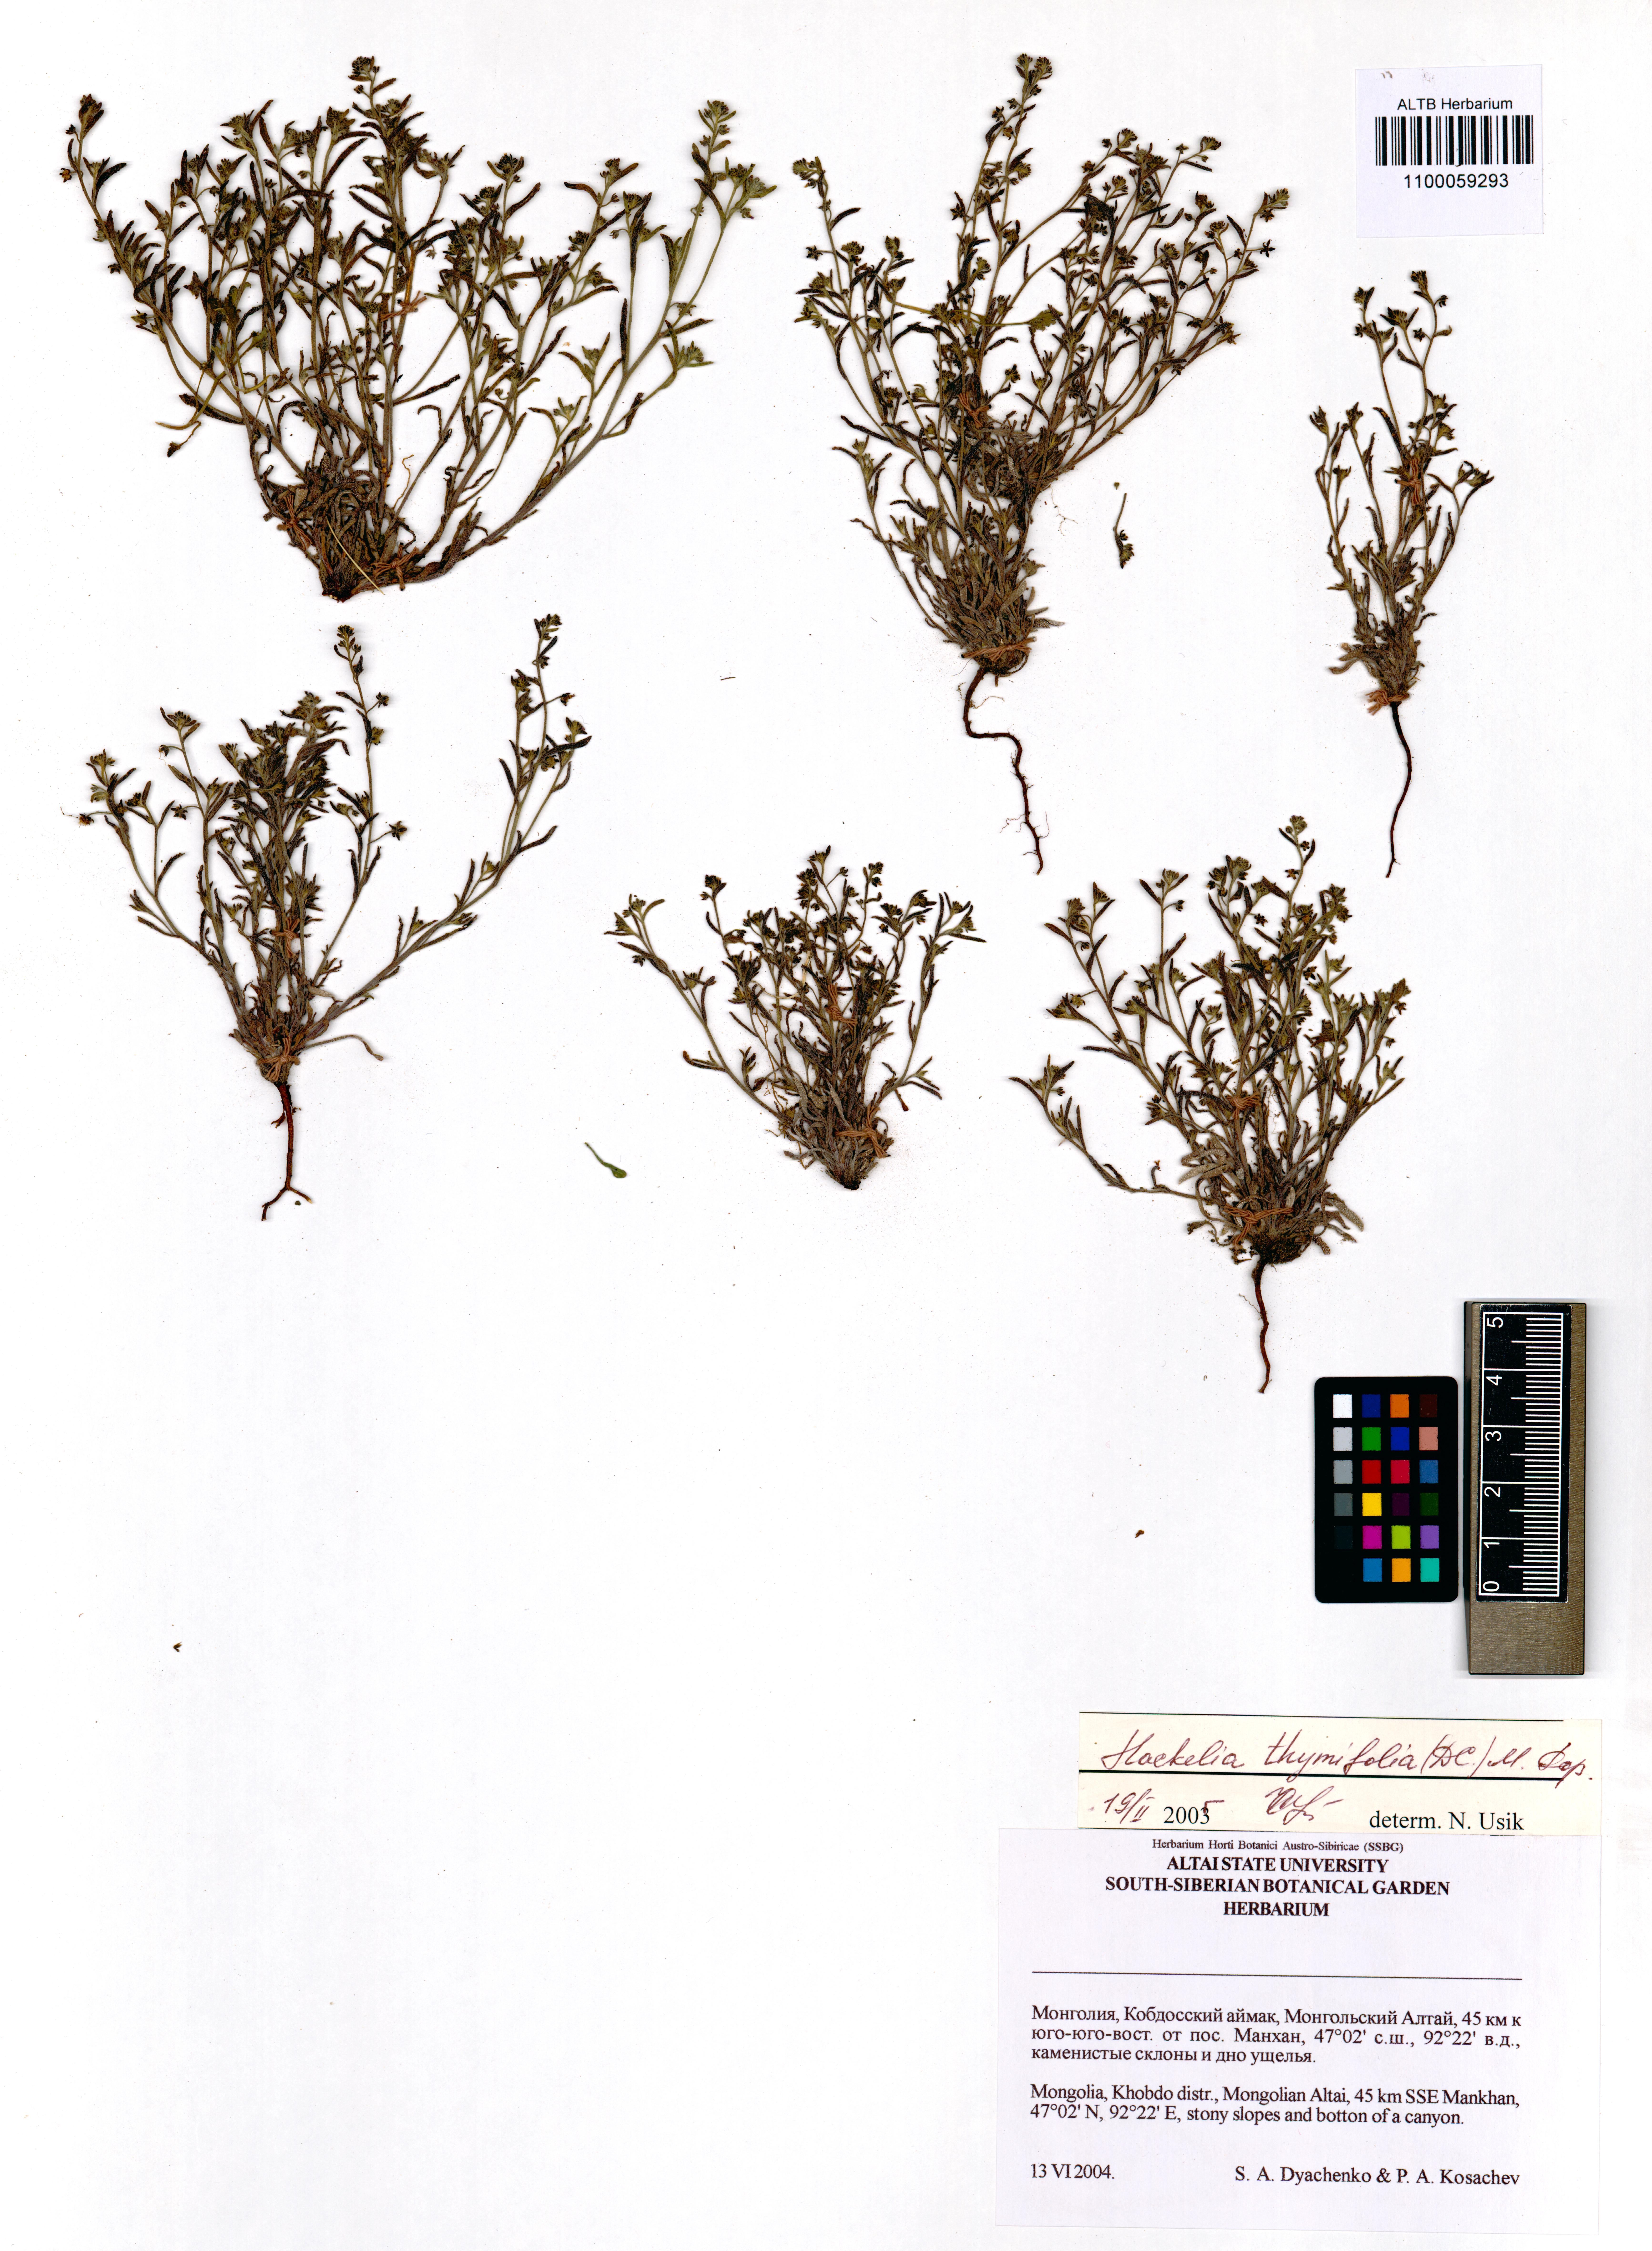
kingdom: Plantae
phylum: Tracheophyta
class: Magnoliopsida
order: Boraginales
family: Boraginaceae
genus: Eritrichium
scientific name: Eritrichium thymifolium
